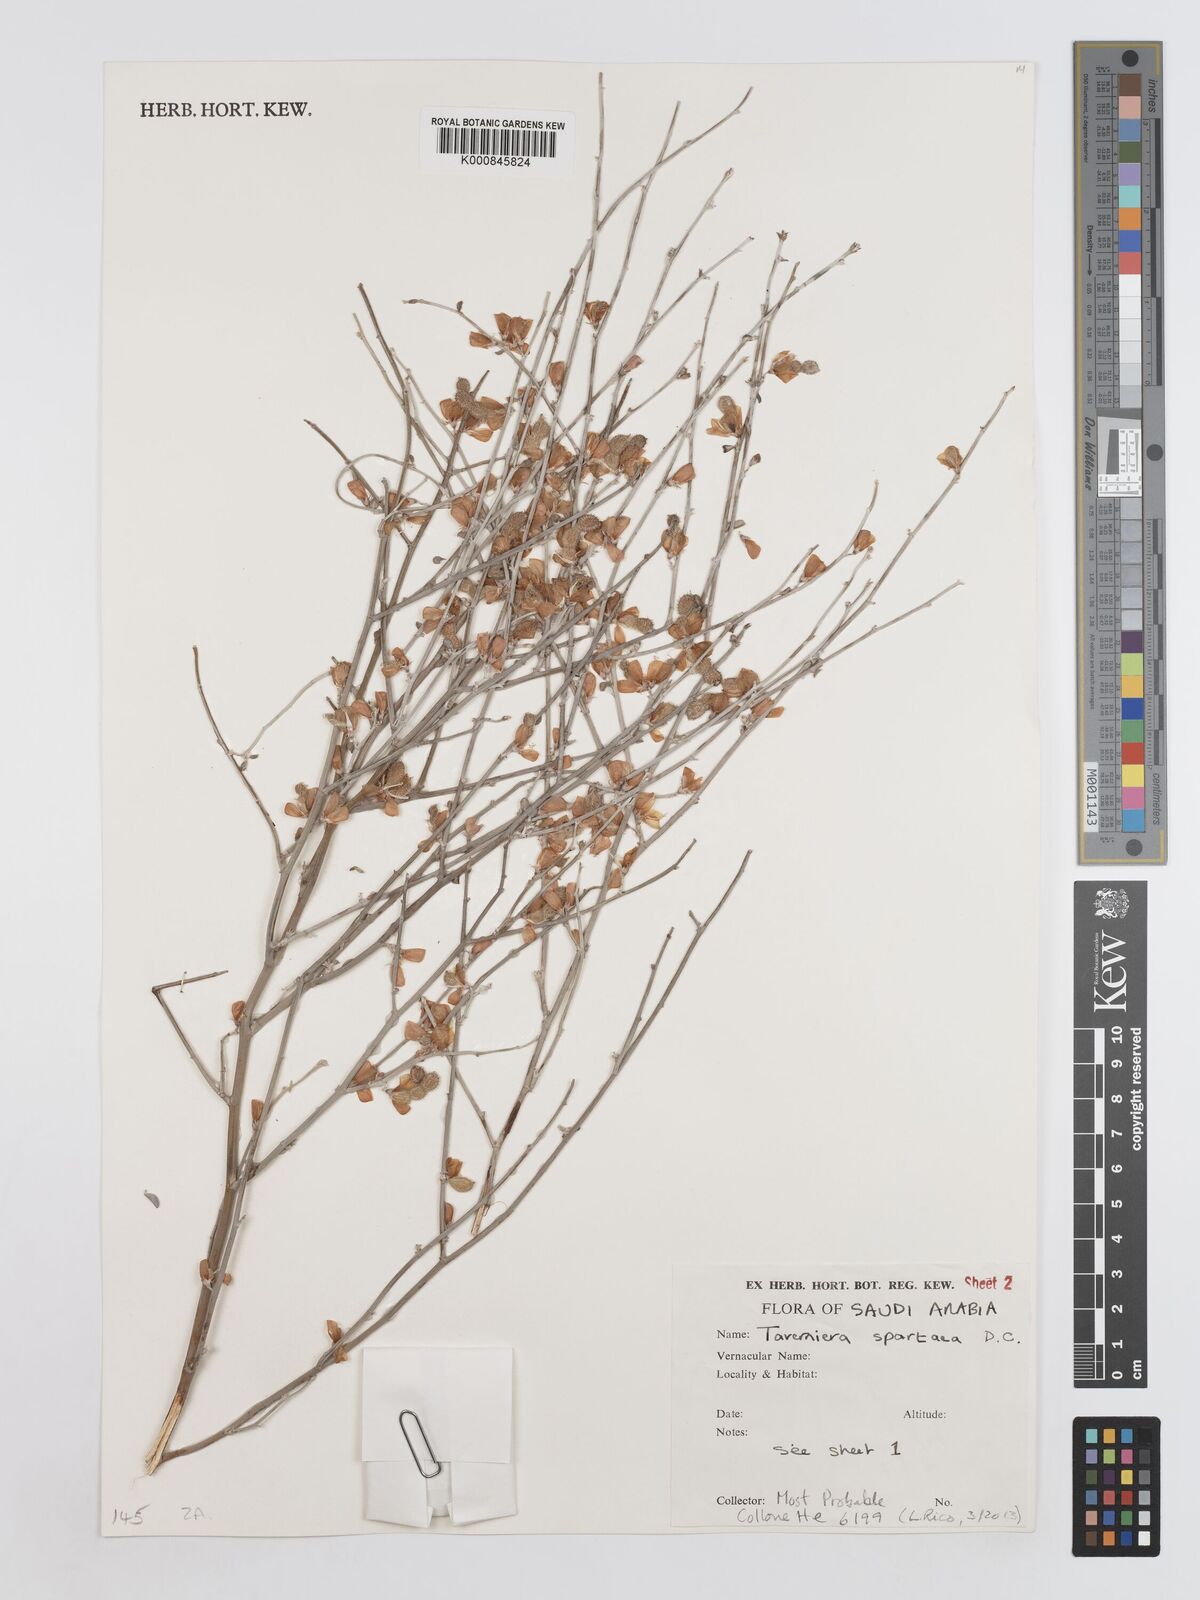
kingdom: Plantae
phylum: Tracheophyta
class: Magnoliopsida
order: Fabales
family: Fabaceae
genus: Taverniera
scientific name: Taverniera spartea
